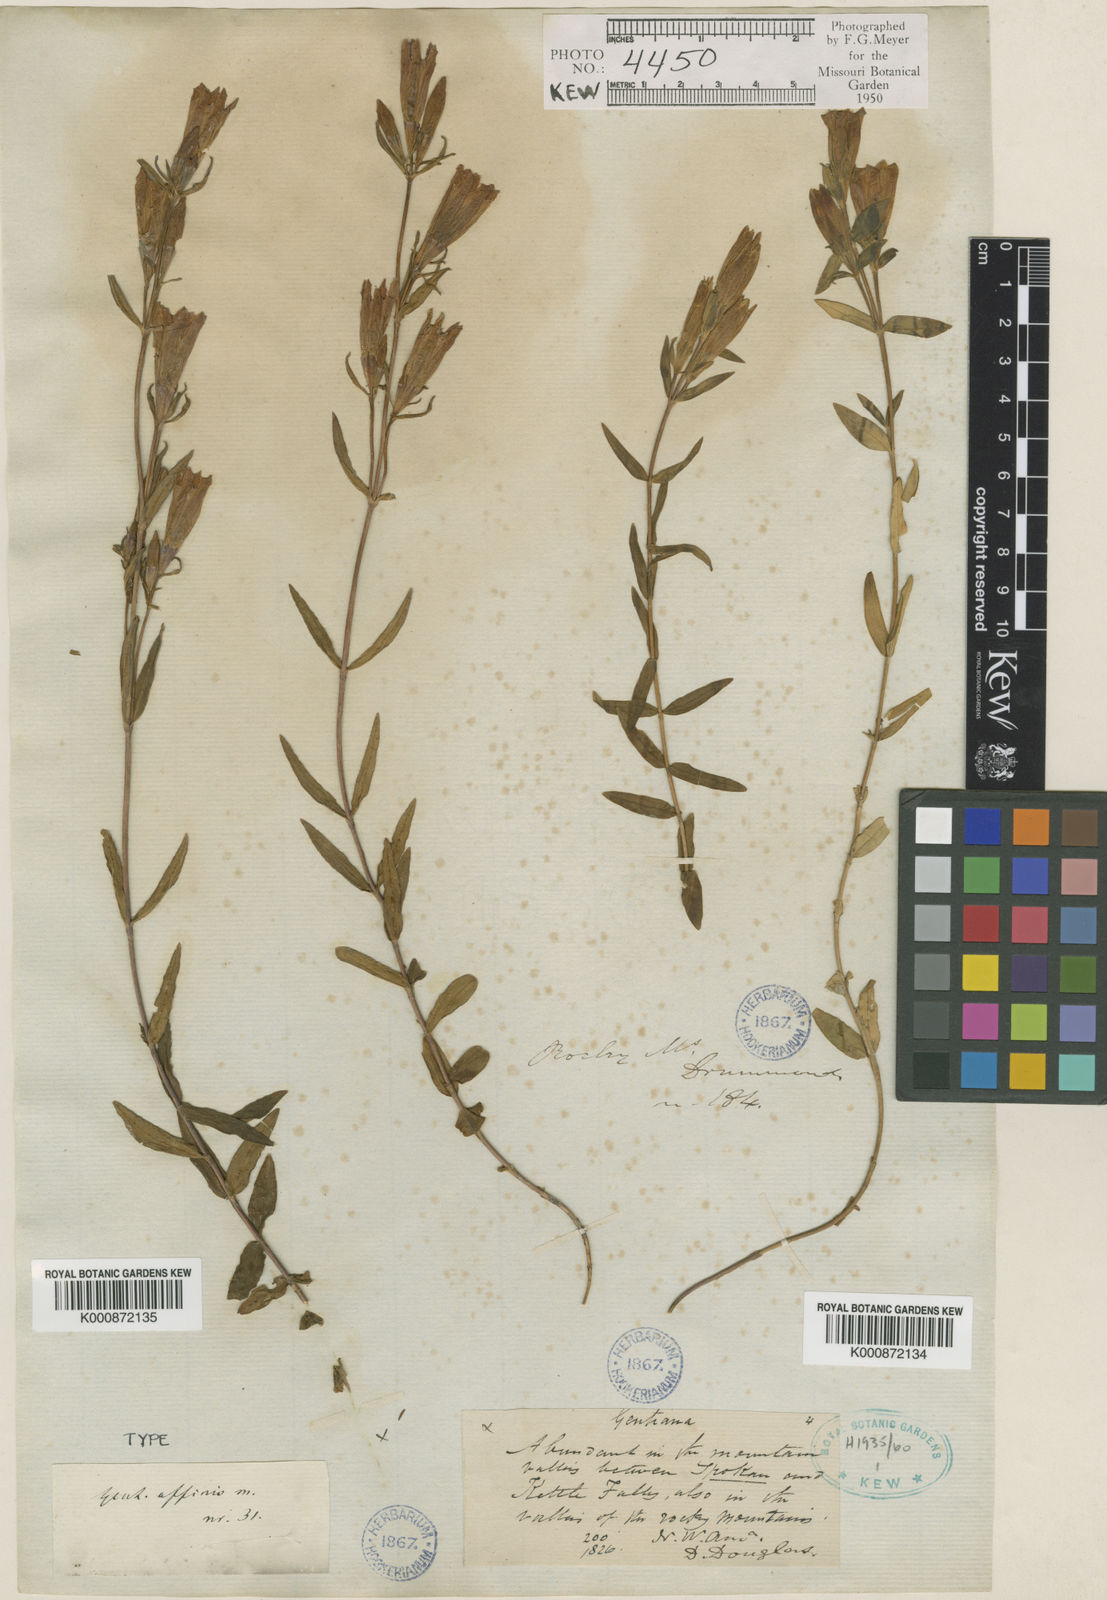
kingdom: Plantae
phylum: Tracheophyta
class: Magnoliopsida
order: Gentianales
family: Gentianaceae
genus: Gentiana
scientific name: Gentiana affinis
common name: Rocky mountain gentian
